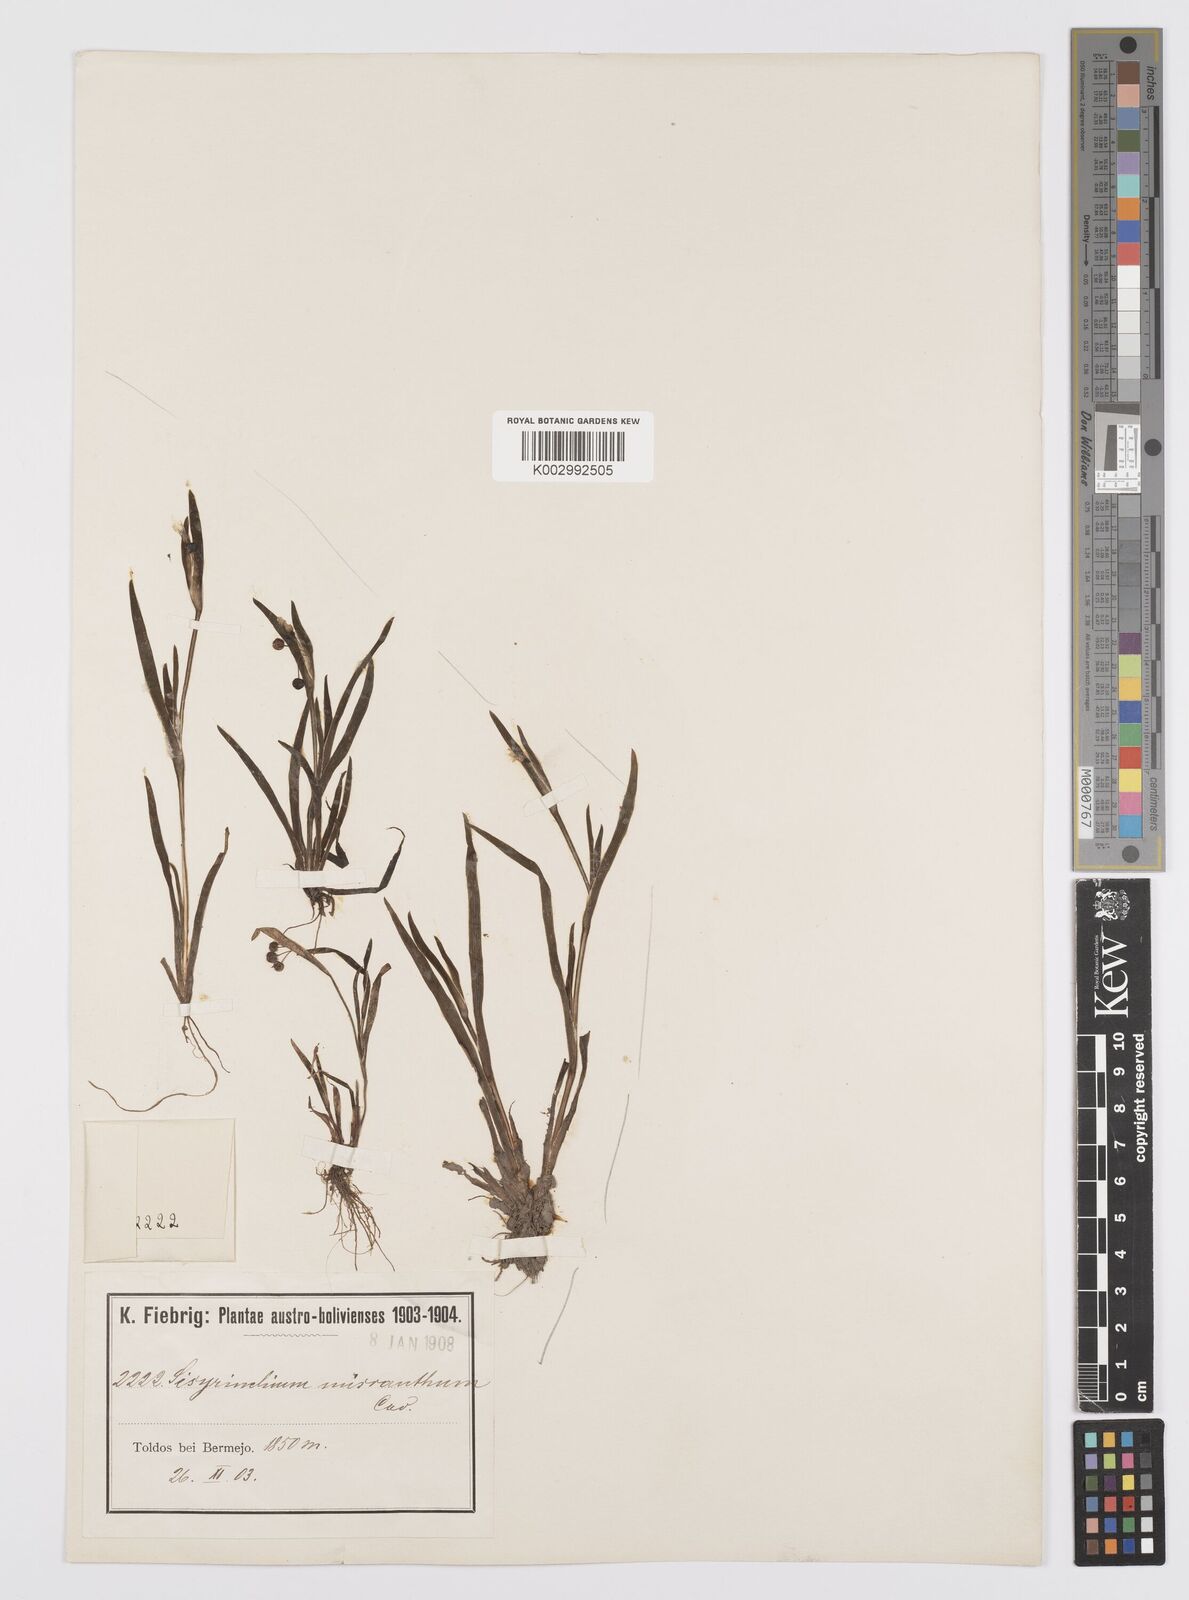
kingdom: Plantae
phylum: Tracheophyta
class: Liliopsida
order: Asparagales
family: Iridaceae
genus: Sisyrinchium
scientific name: Sisyrinchium micranthum
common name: Bermuda pigroot
